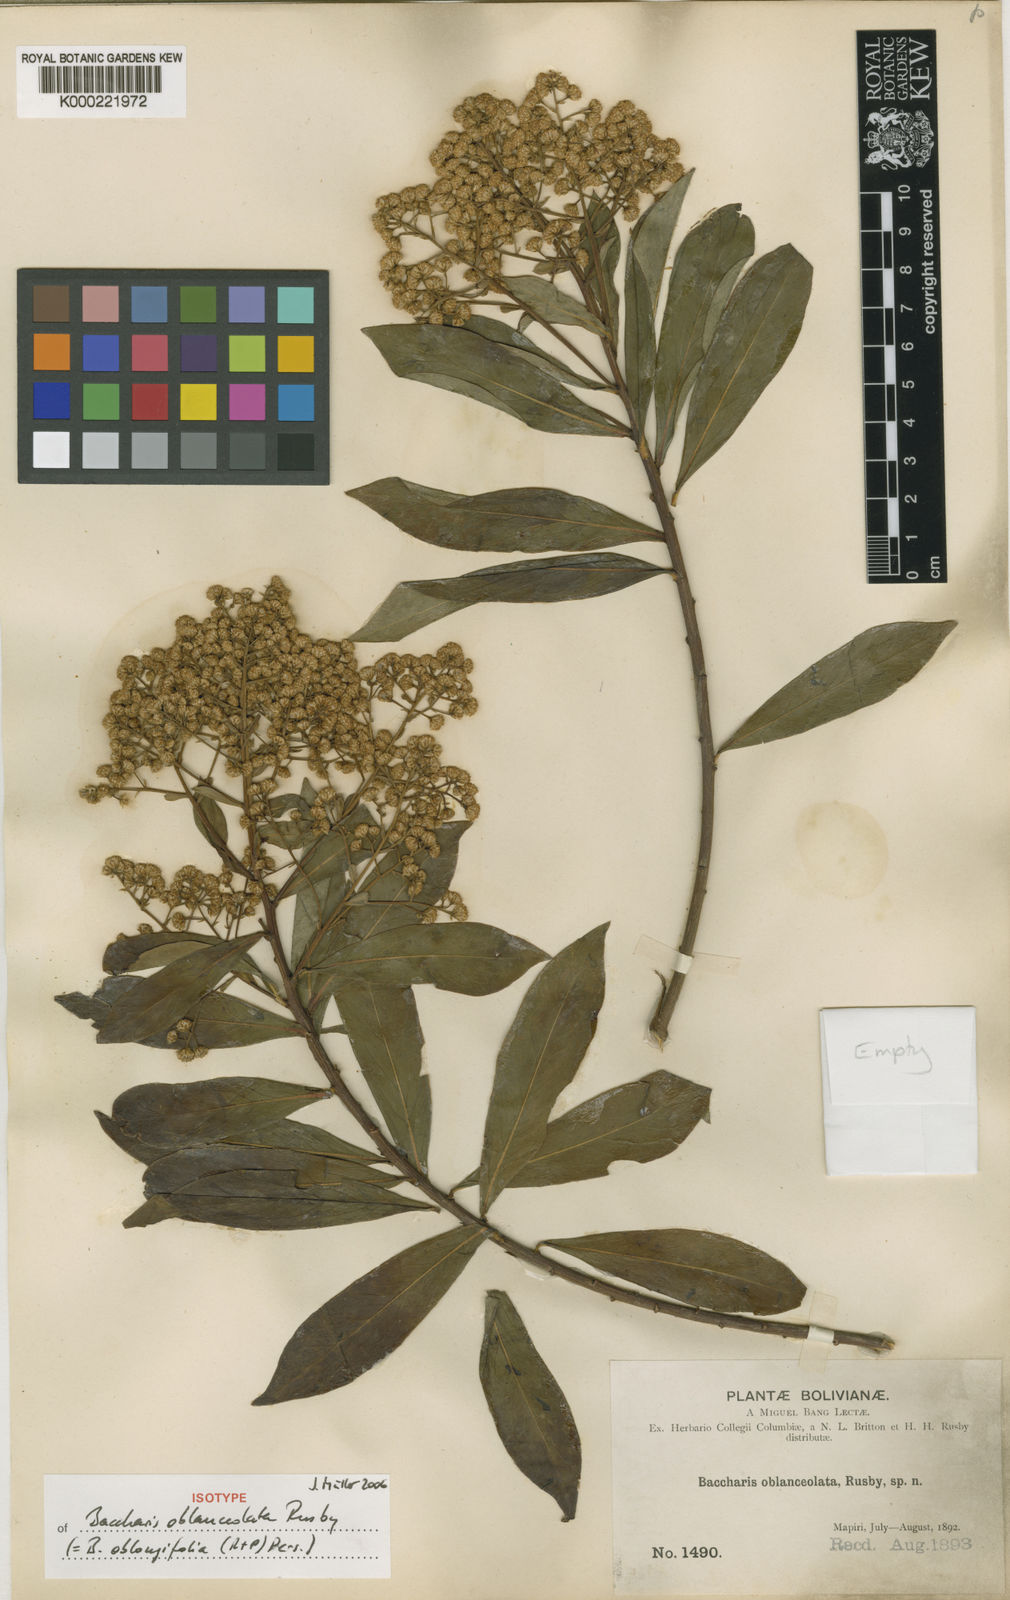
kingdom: Plantae
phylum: Tracheophyta
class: Magnoliopsida
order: Asterales
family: Asteraceae
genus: Baccharis
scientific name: Baccharis oblongifolia
